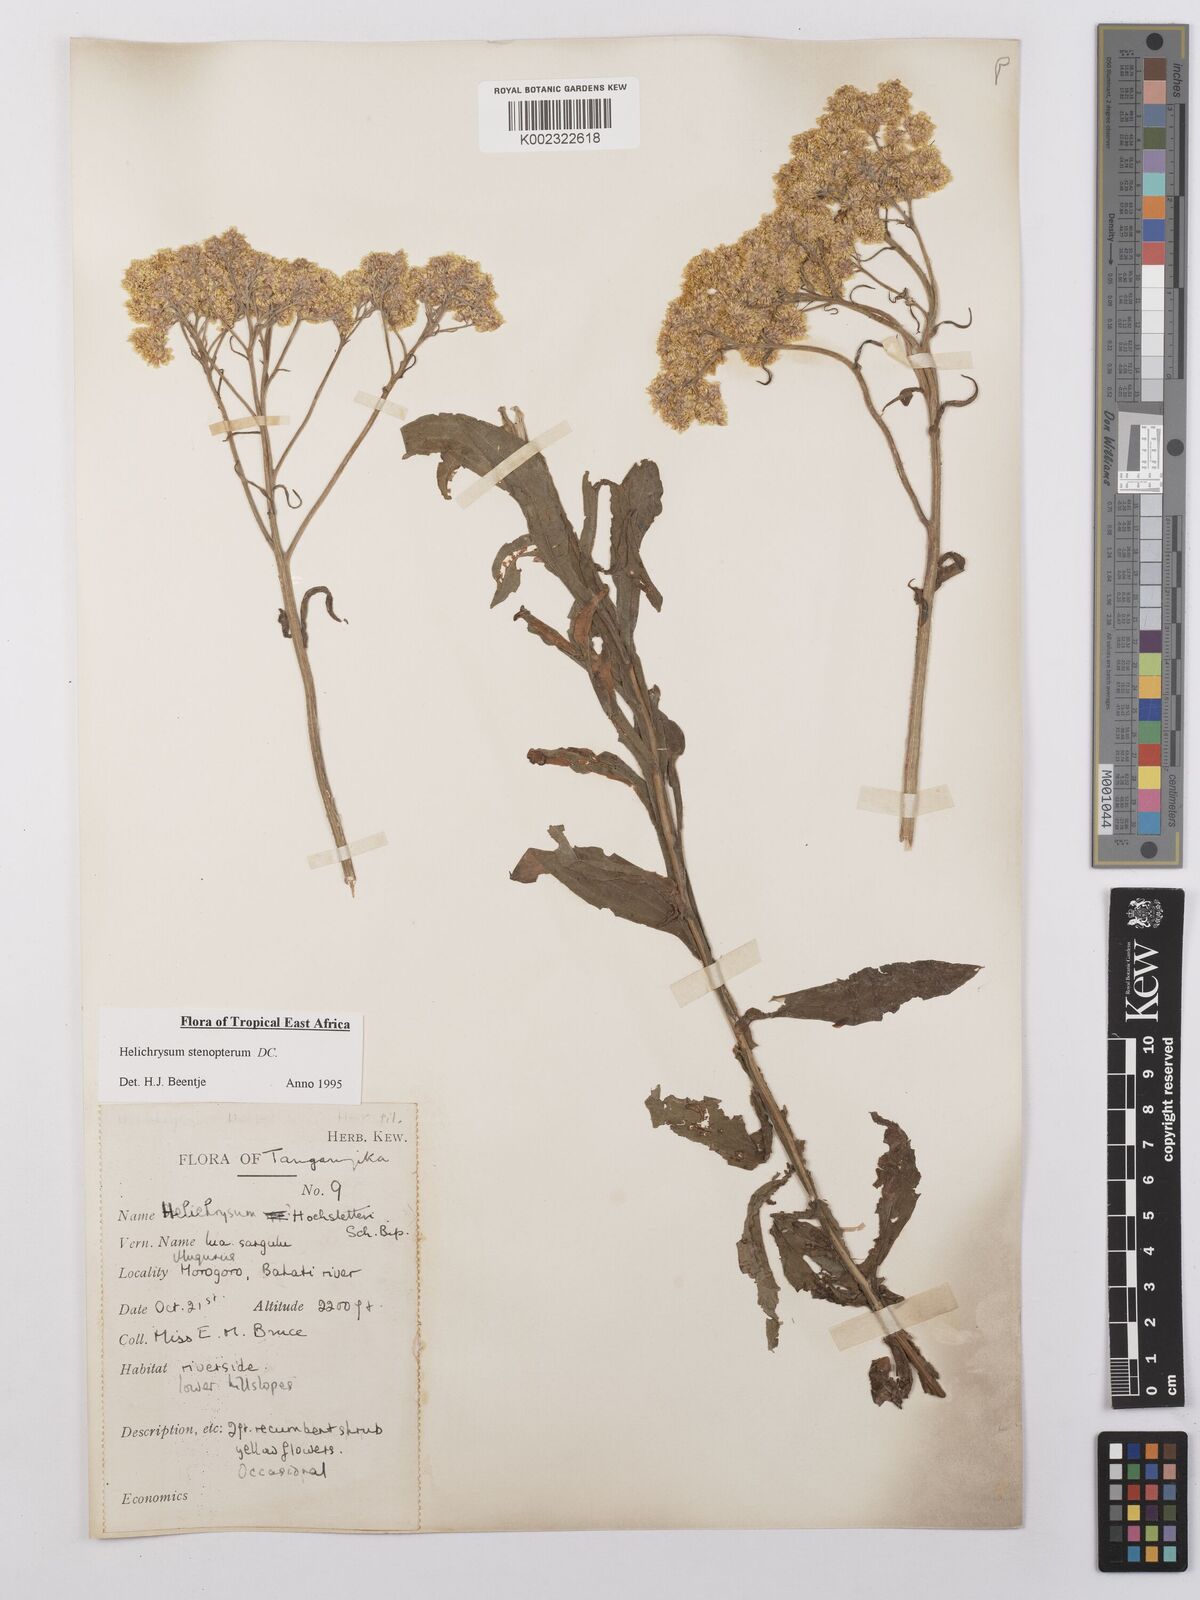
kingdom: Plantae
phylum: Tracheophyta
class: Magnoliopsida
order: Asterales
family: Asteraceae
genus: Helichrysum
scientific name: Helichrysum stenopterum
